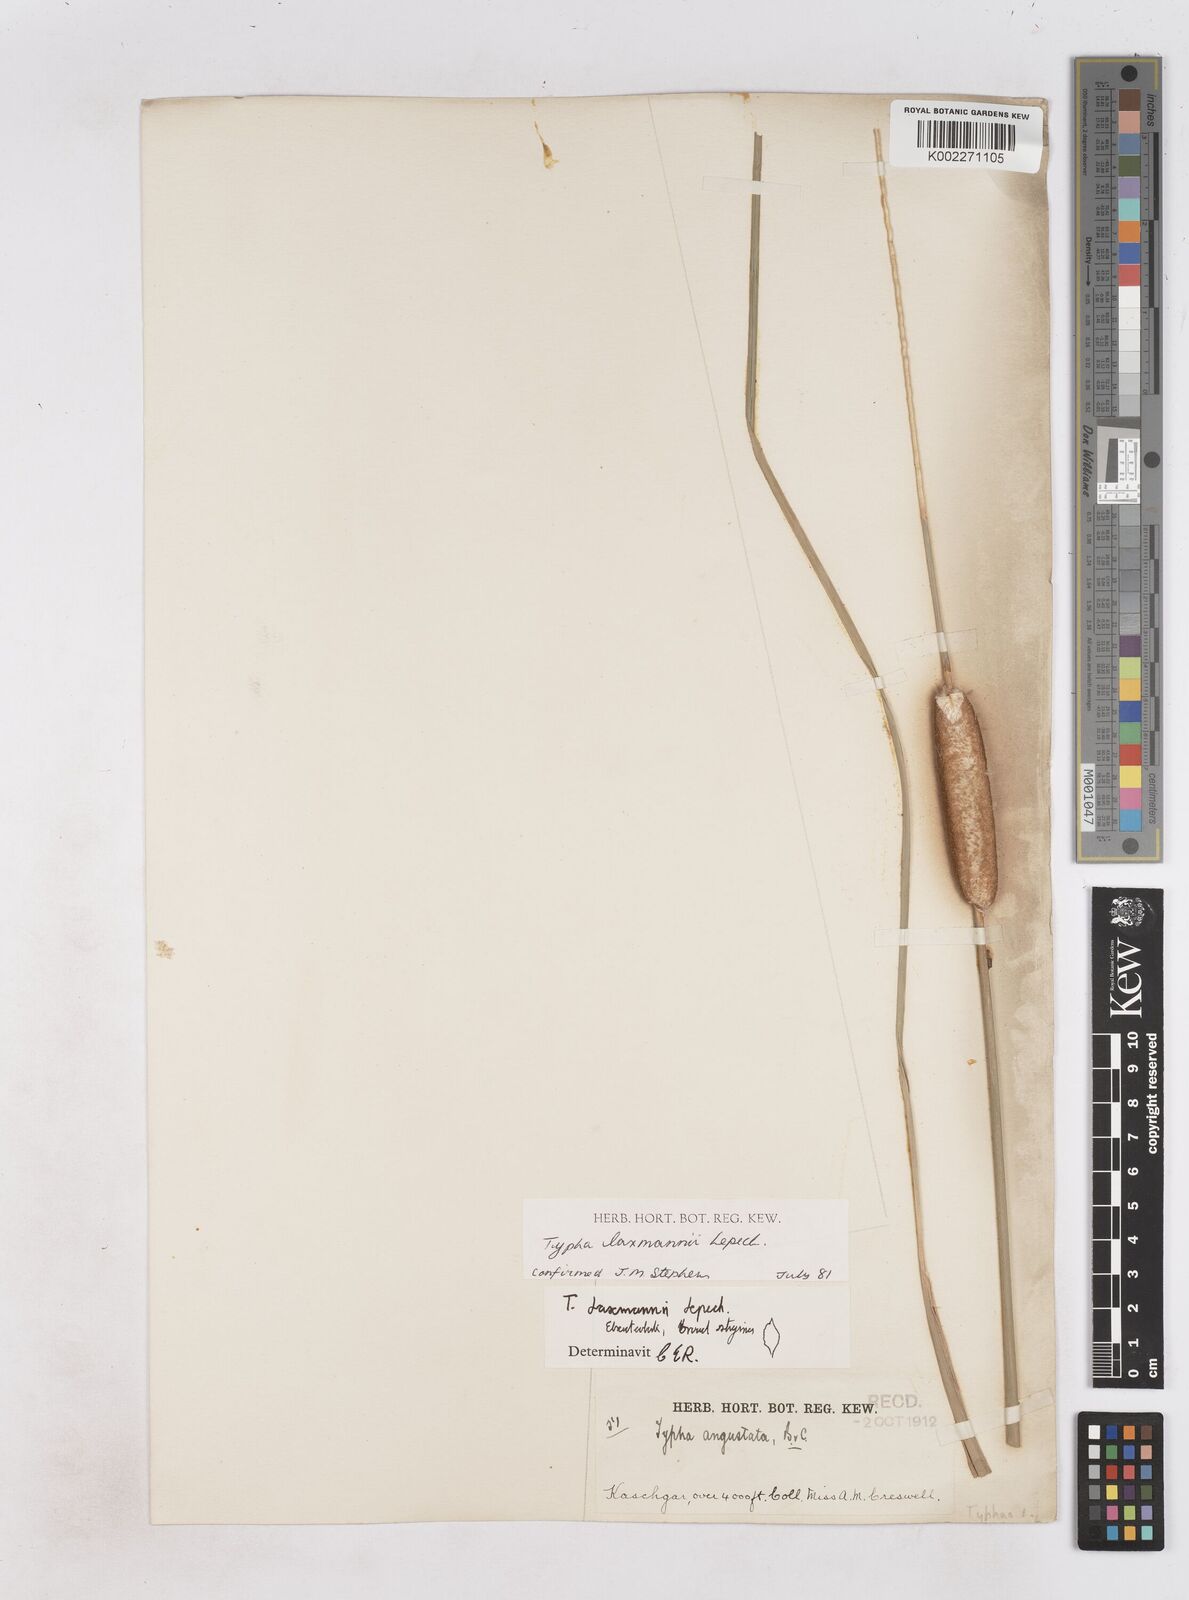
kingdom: Plantae
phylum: Tracheophyta
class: Liliopsida
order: Poales
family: Typhaceae
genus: Typha
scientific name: Typha laxmannii
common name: Laxman’s bulrush
